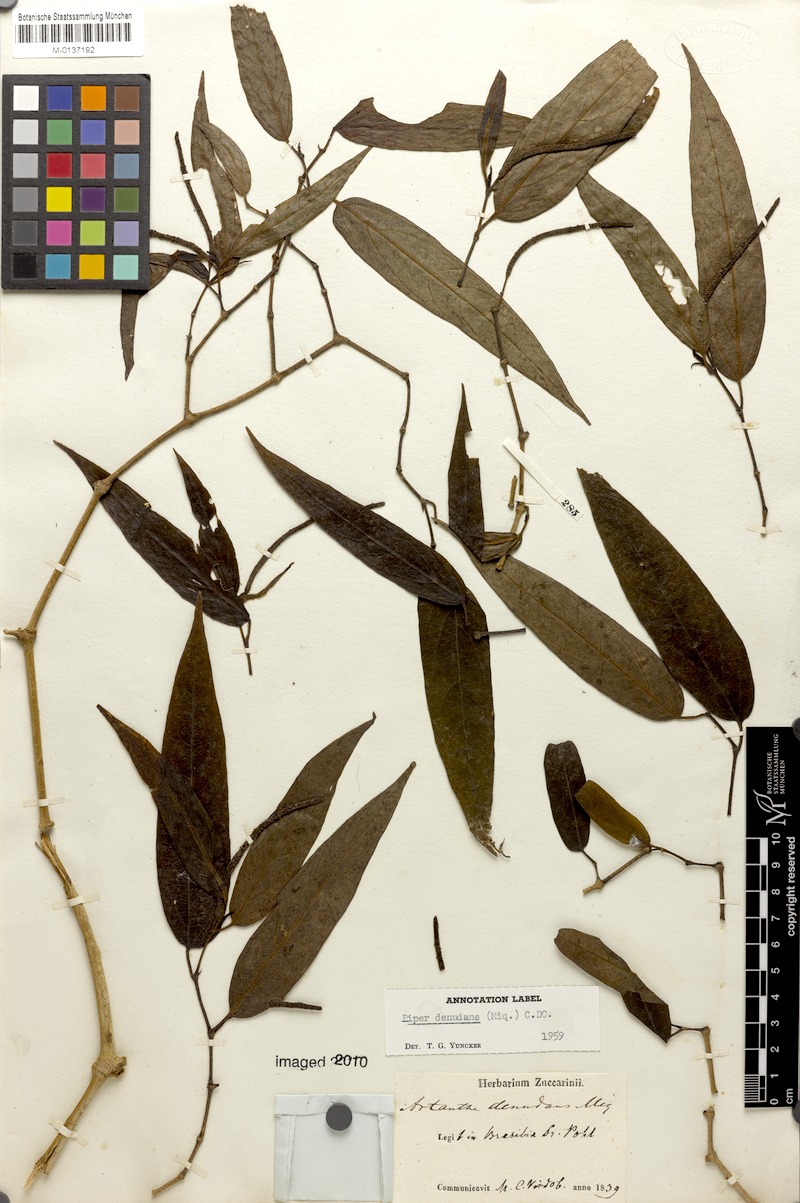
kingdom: Plantae
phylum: Tracheophyta
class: Magnoliopsida
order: Piperales
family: Piperaceae
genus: Piper
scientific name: Piper lepturum
